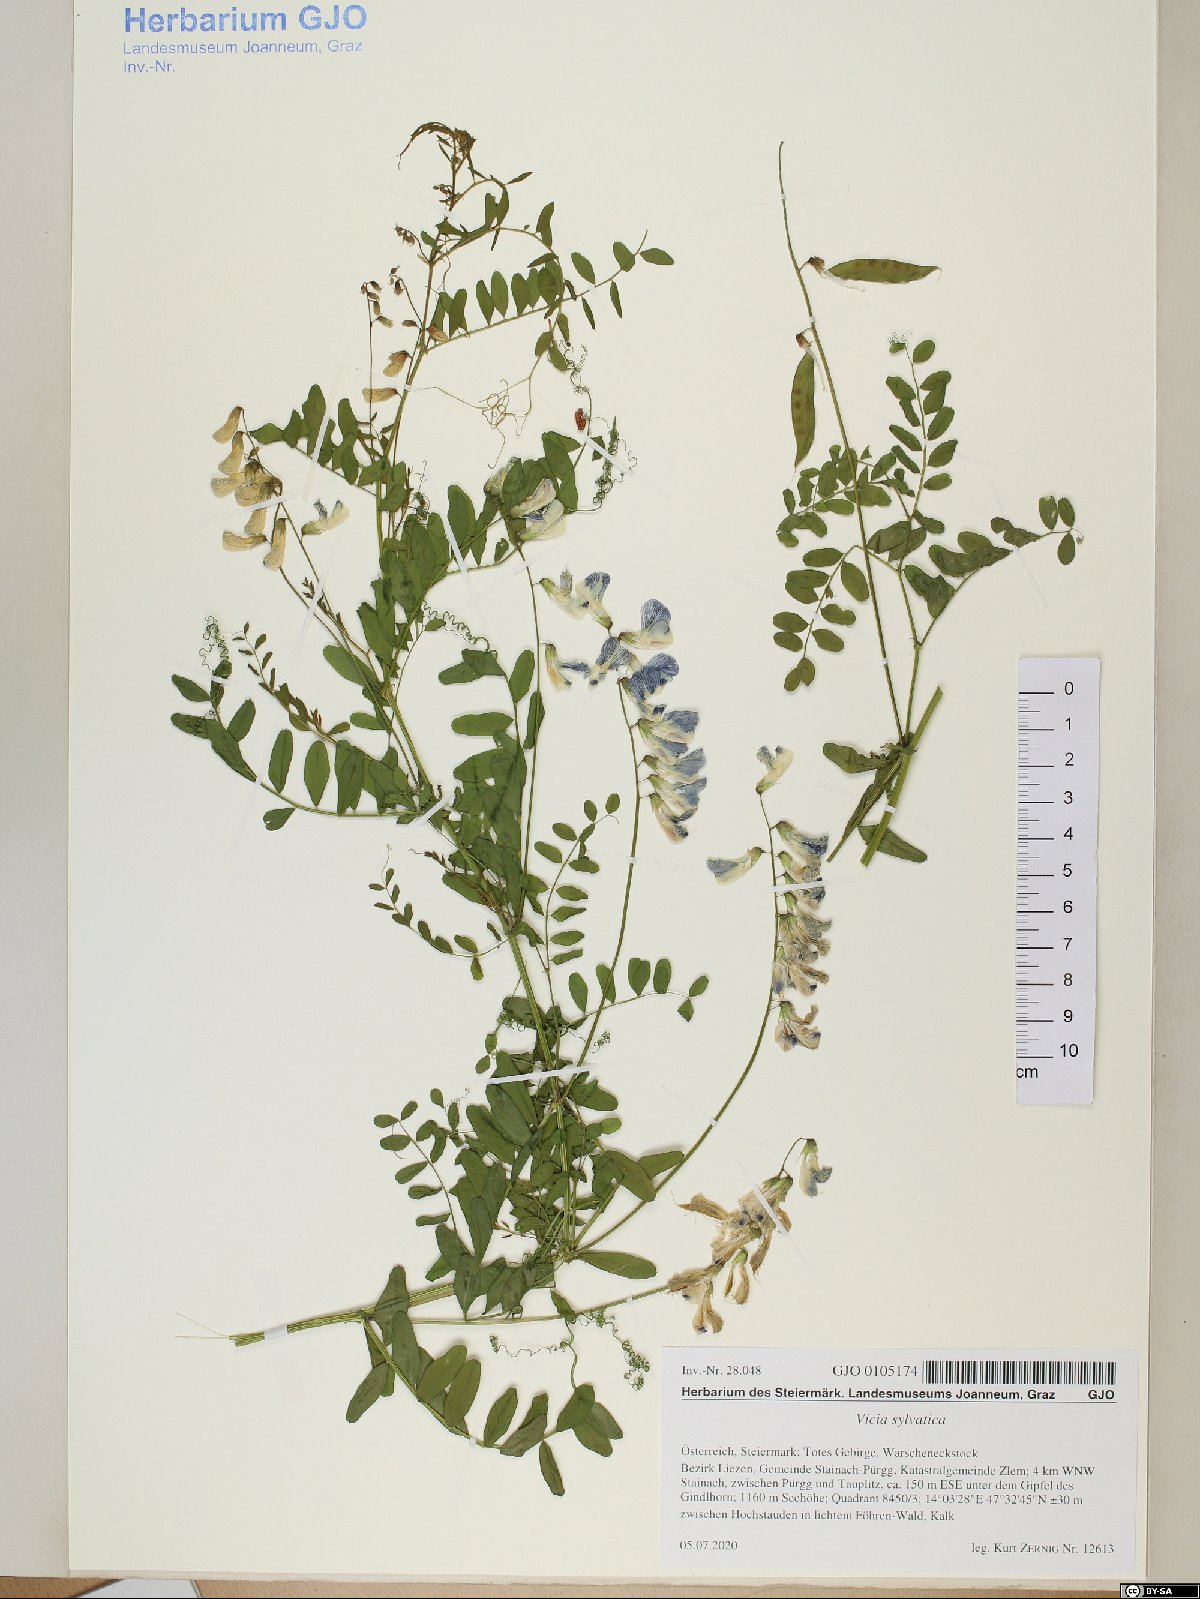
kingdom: Plantae
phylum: Tracheophyta
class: Magnoliopsida
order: Fabales
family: Fabaceae
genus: Vicia
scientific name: Vicia sylvatica
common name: Wood vetch
